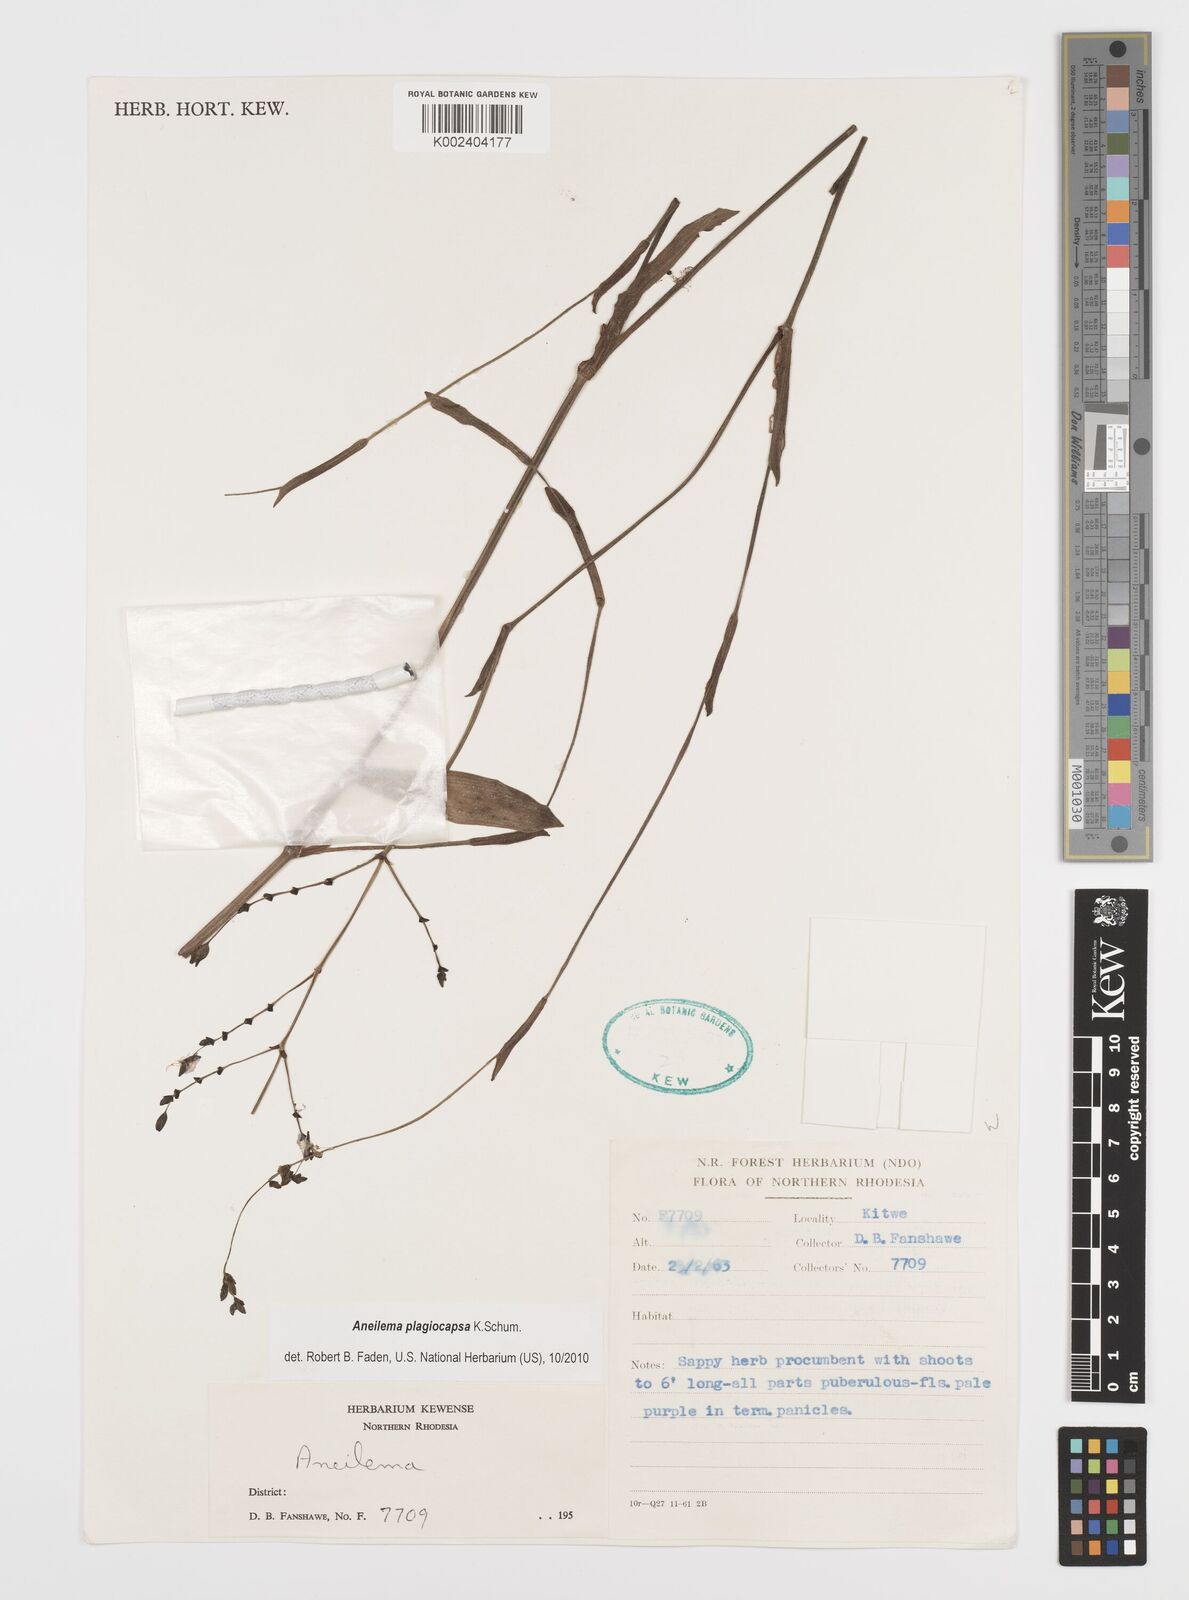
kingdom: Plantae
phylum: Tracheophyta
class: Liliopsida
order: Commelinales
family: Commelinaceae
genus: Aneilema
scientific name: Aneilema plagiocapsa
